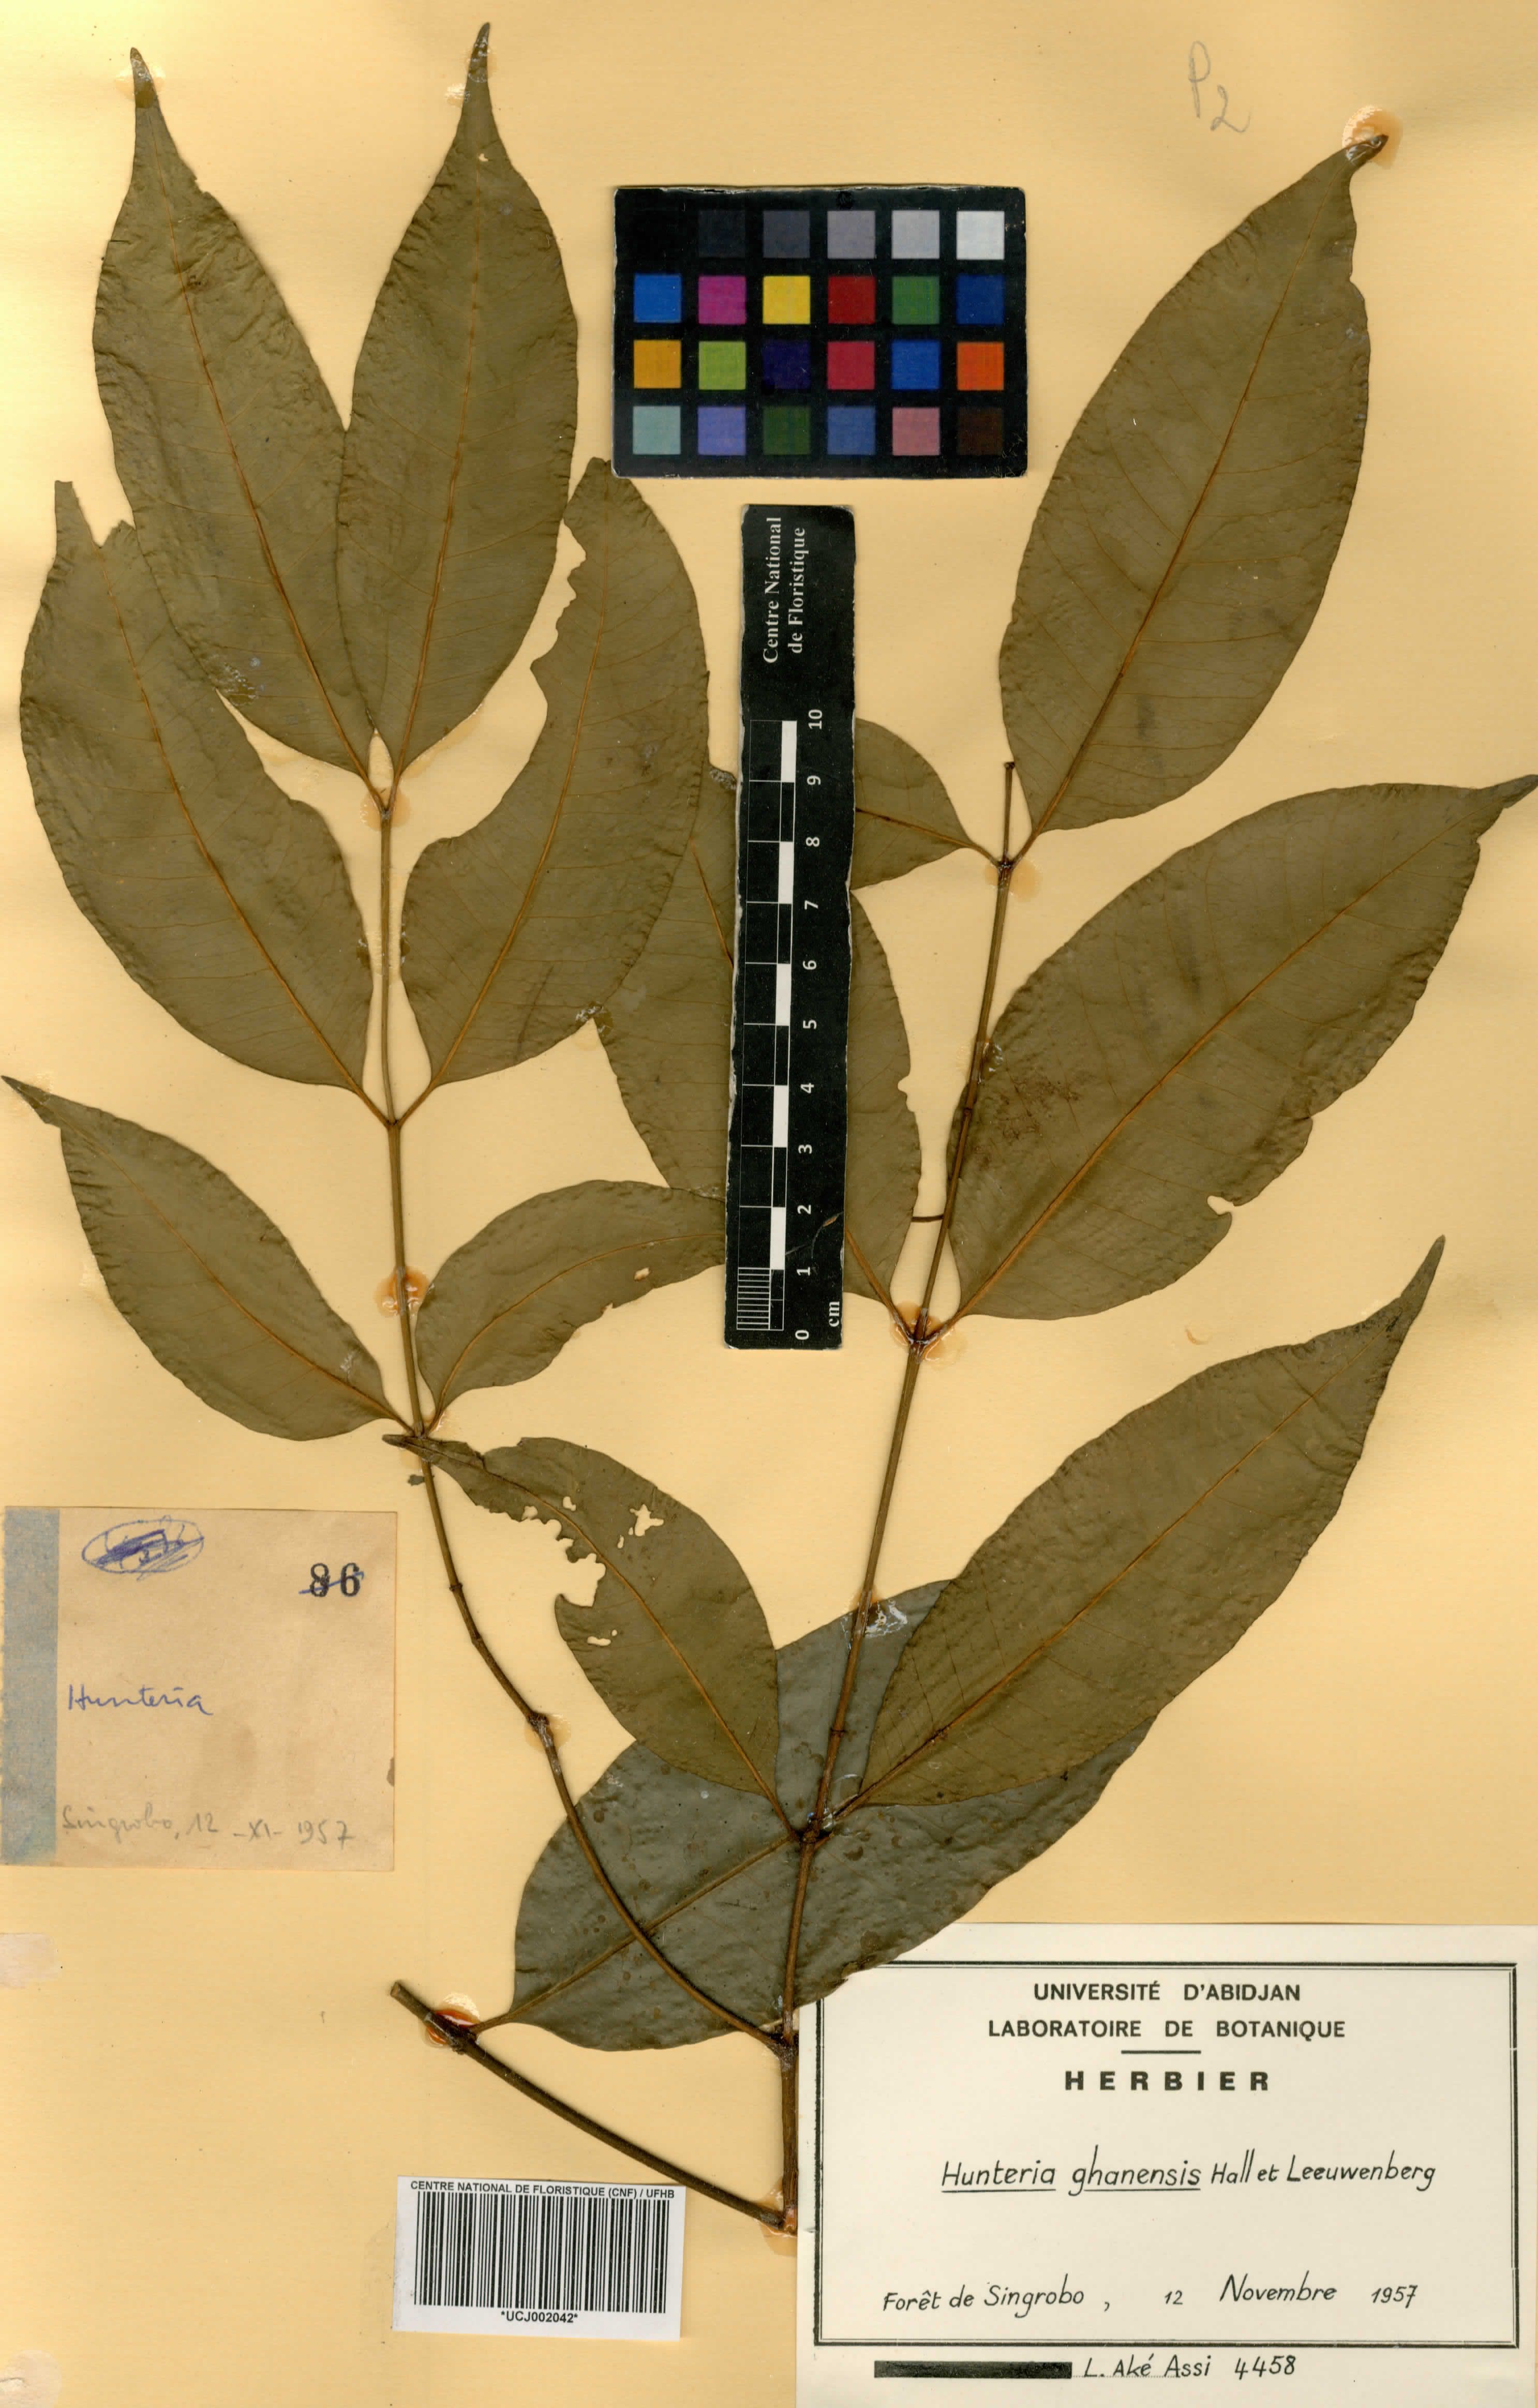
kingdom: Plantae
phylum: Tracheophyta
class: Magnoliopsida
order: Gentianales
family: Apocynaceae
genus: Hunteria
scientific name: Hunteria ghanensis
